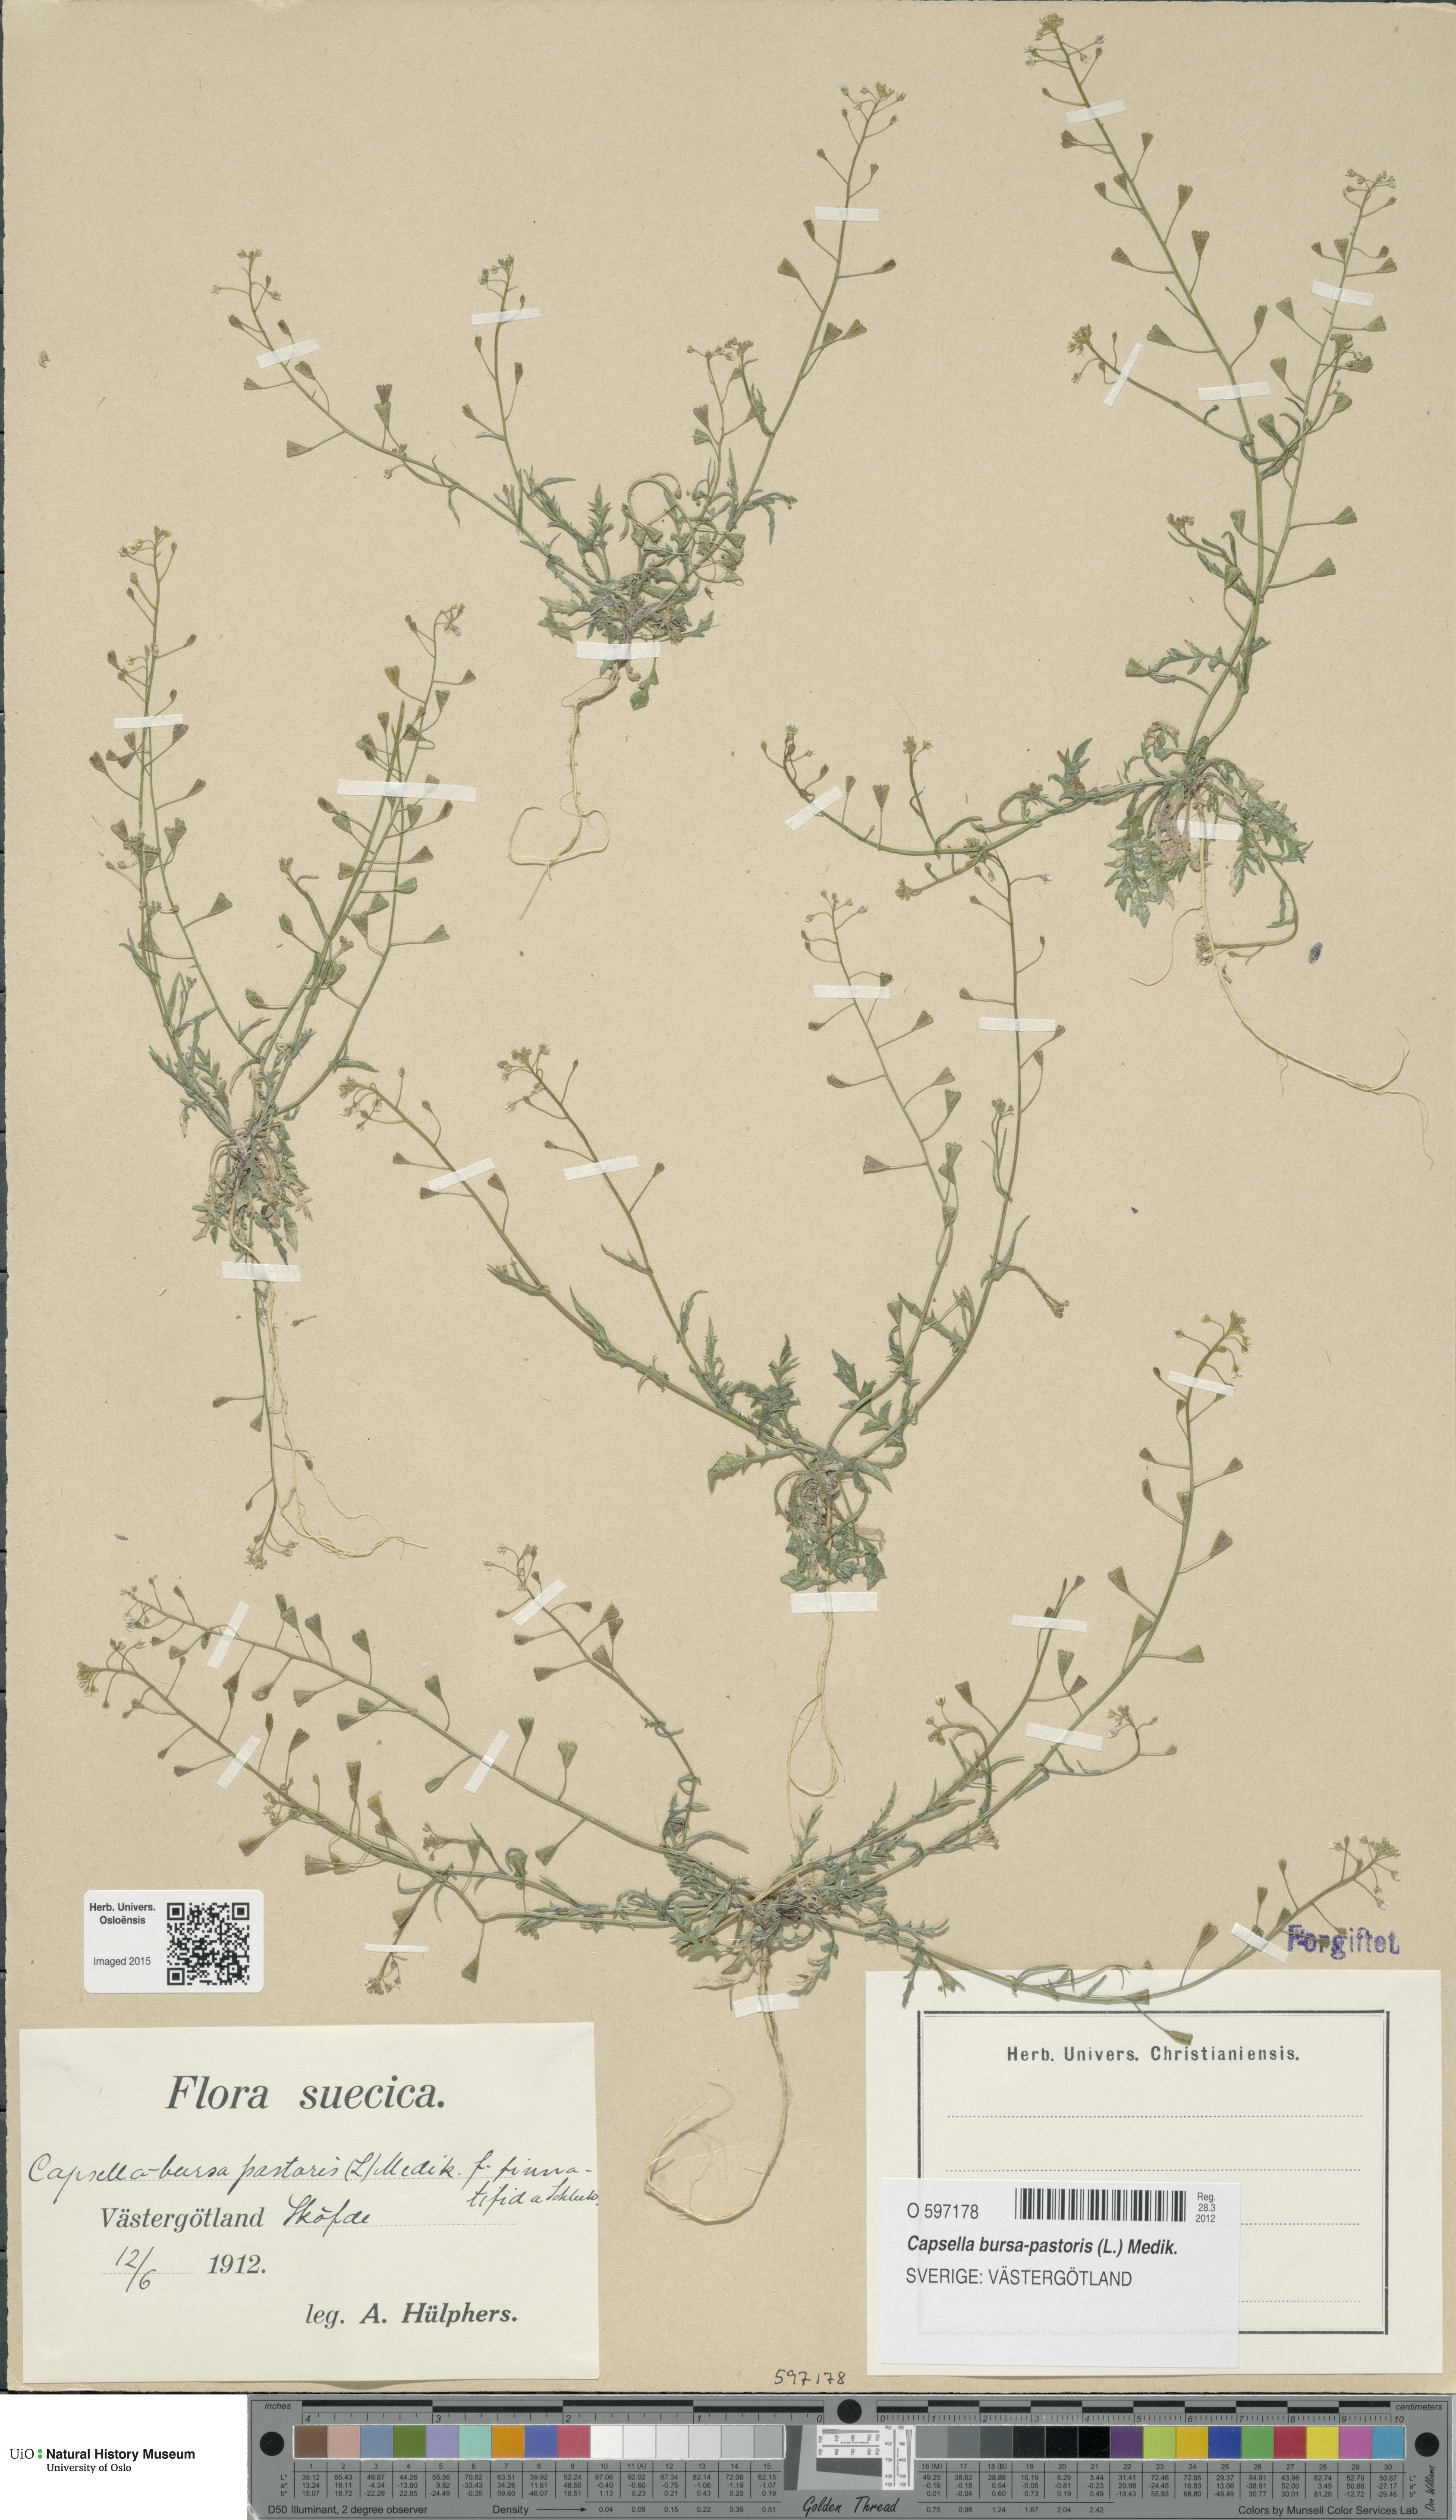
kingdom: Plantae
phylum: Tracheophyta
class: Magnoliopsida
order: Brassicales
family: Brassicaceae
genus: Capsella
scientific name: Capsella bursa-pastoris
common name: Shepherd's purse
